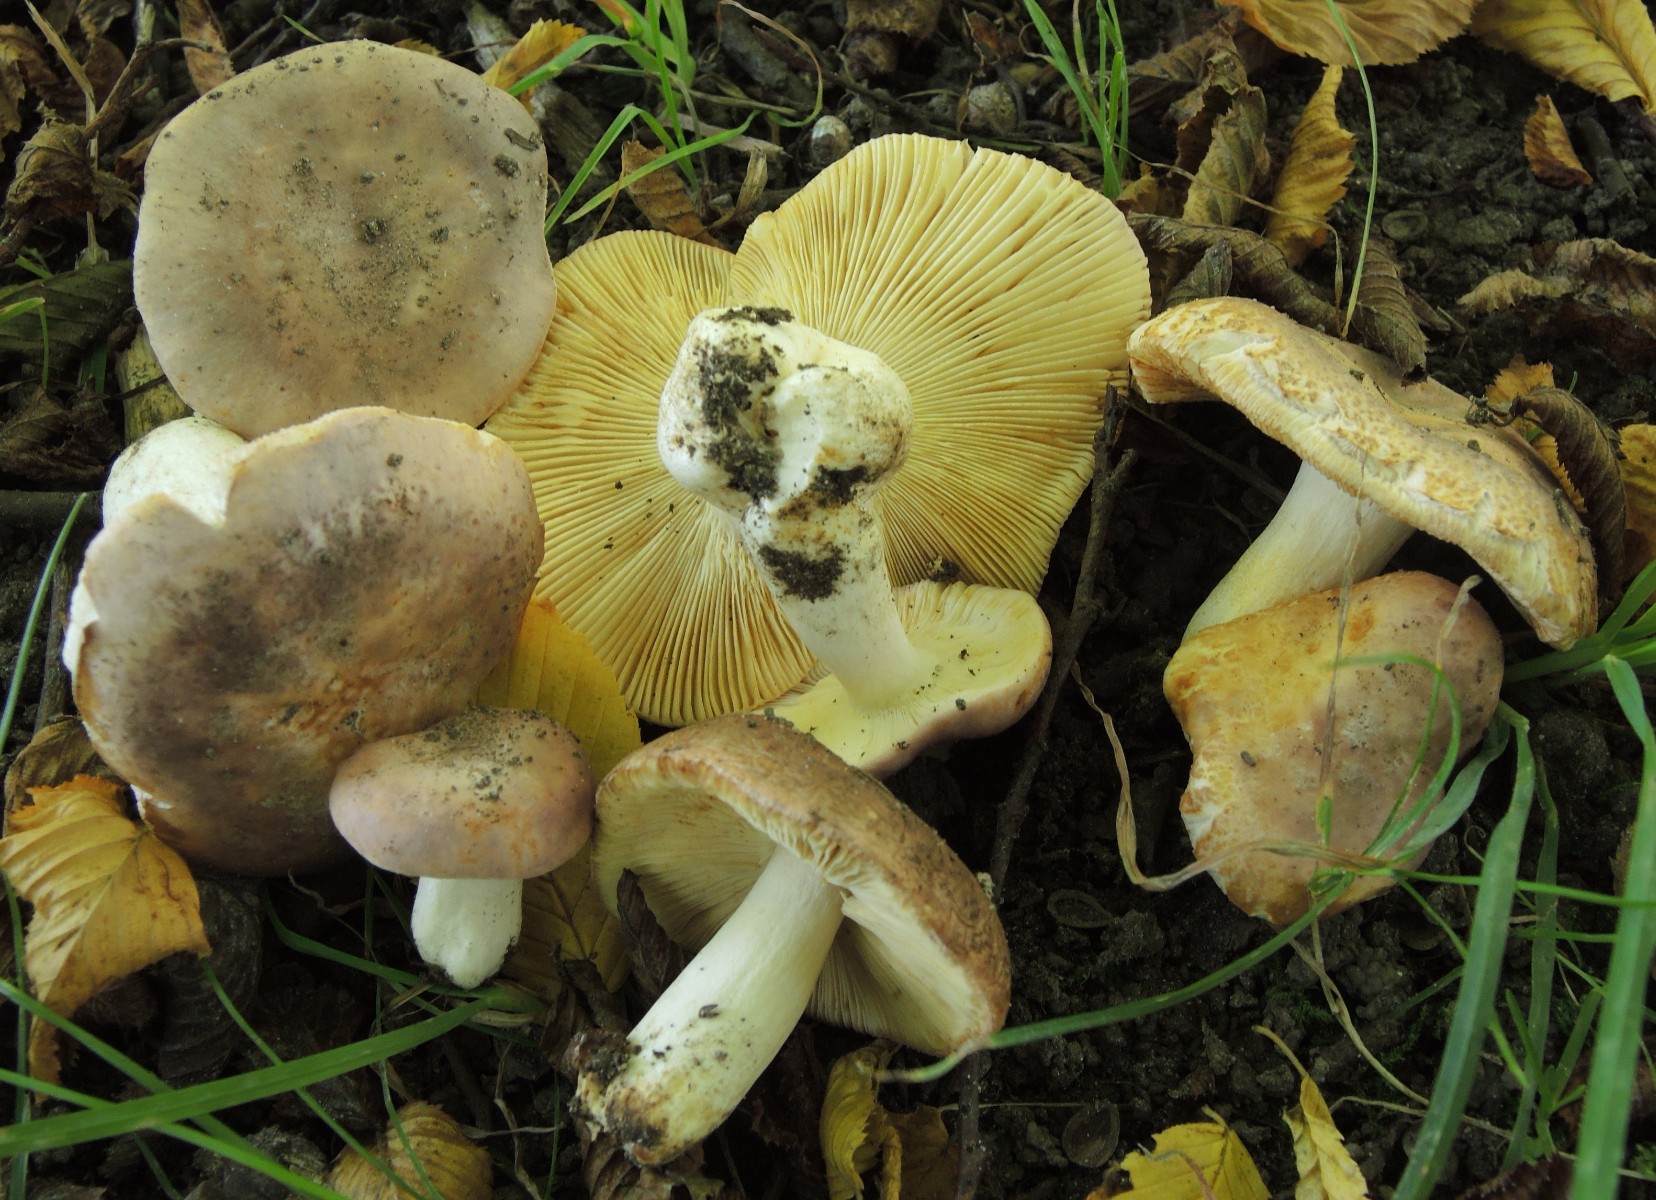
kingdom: Fungi
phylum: Basidiomycota
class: Agaricomycetes
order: Russulales
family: Russulaceae
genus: Russula
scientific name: Russula
